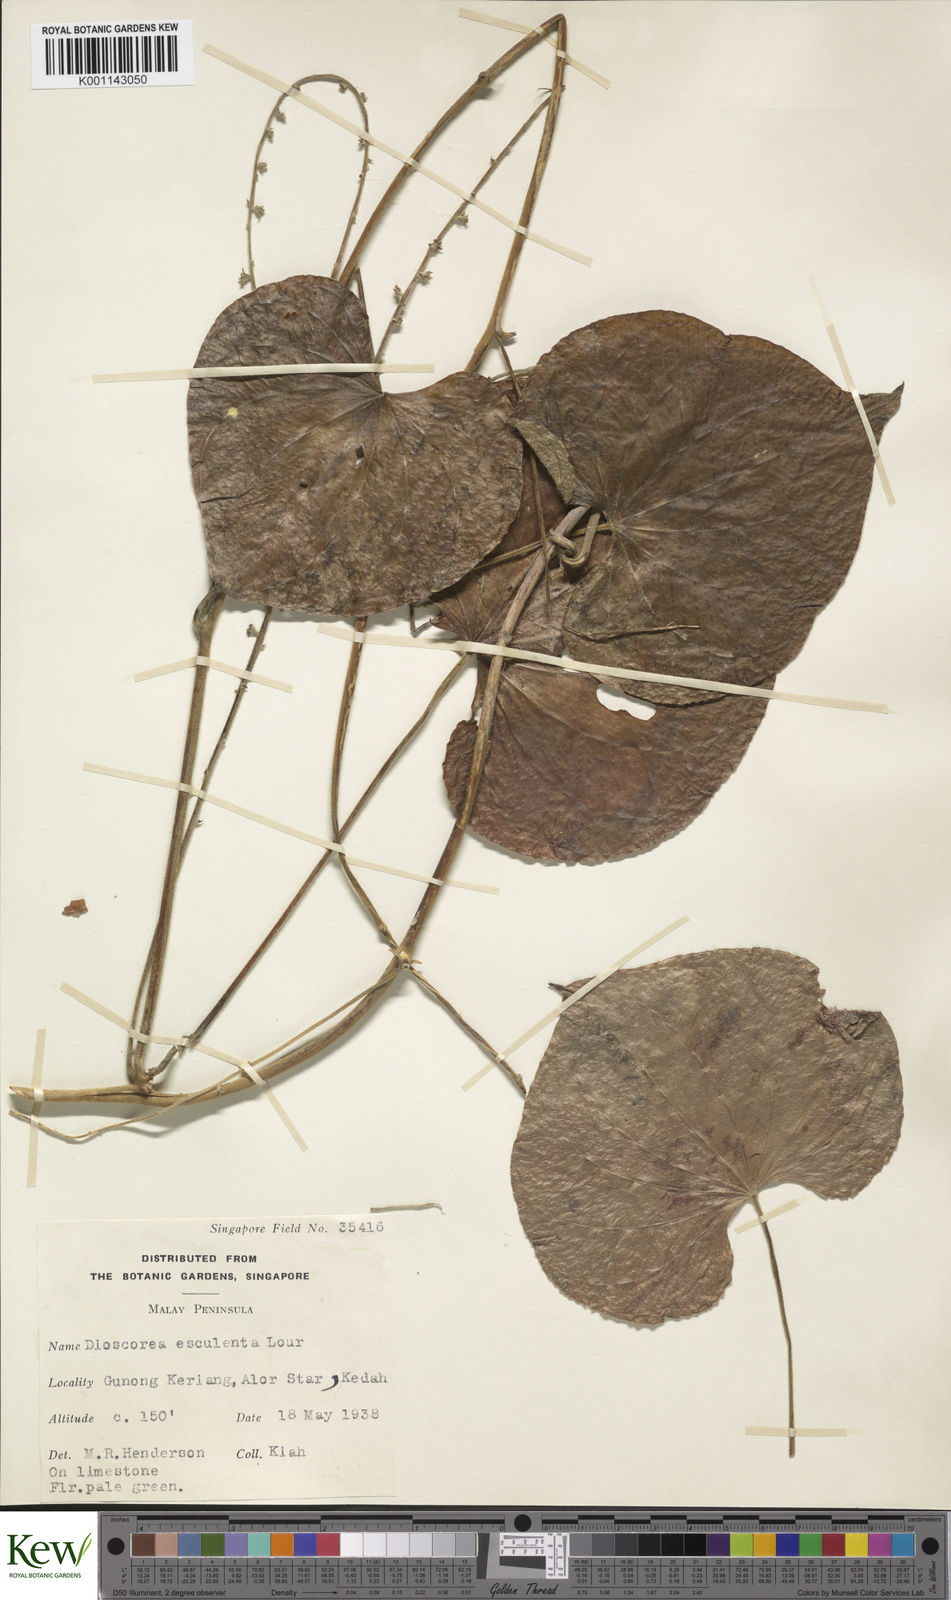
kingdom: Plantae
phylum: Tracheophyta
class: Liliopsida
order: Dioscoreales
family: Dioscoreaceae
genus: Dioscorea
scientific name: Dioscorea esculenta
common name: Chinese yam
